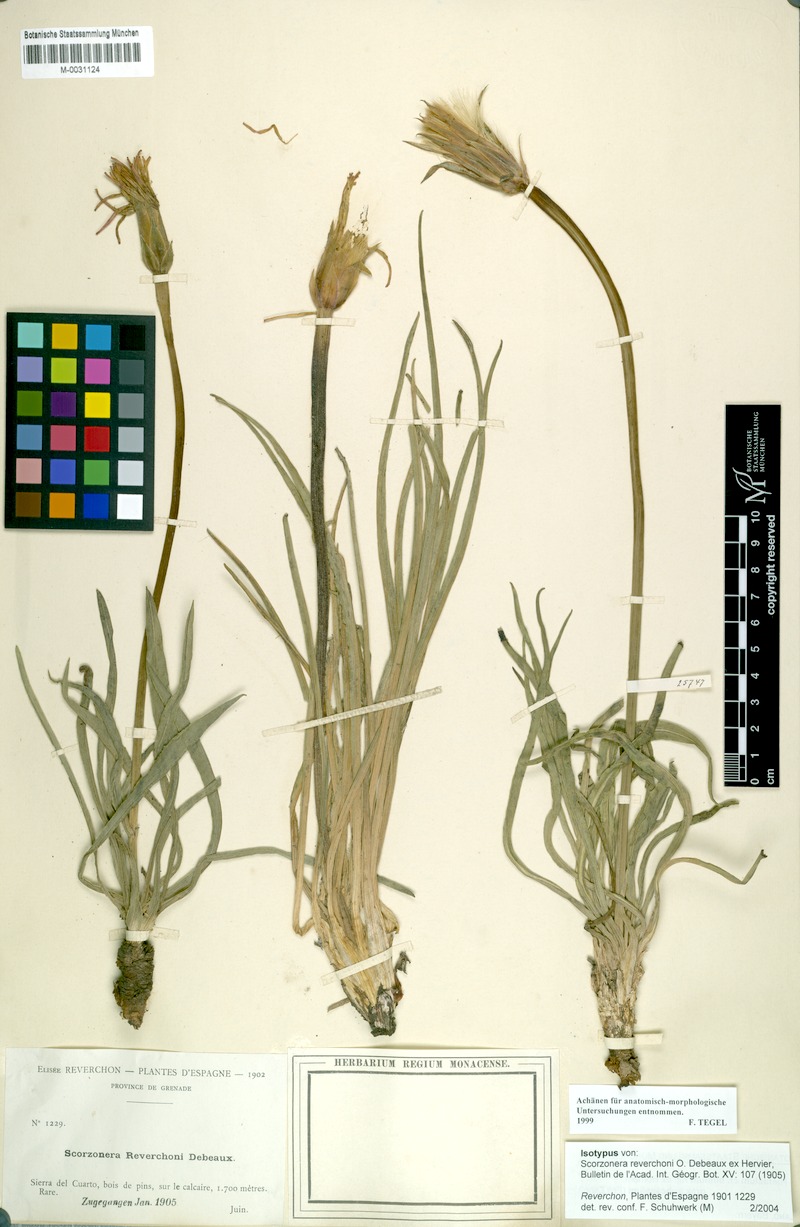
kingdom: Plantae
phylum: Tracheophyta
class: Magnoliopsida
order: Asterales
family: Asteraceae
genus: Pseudopodospermum
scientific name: Pseudopodospermum reverchonii
